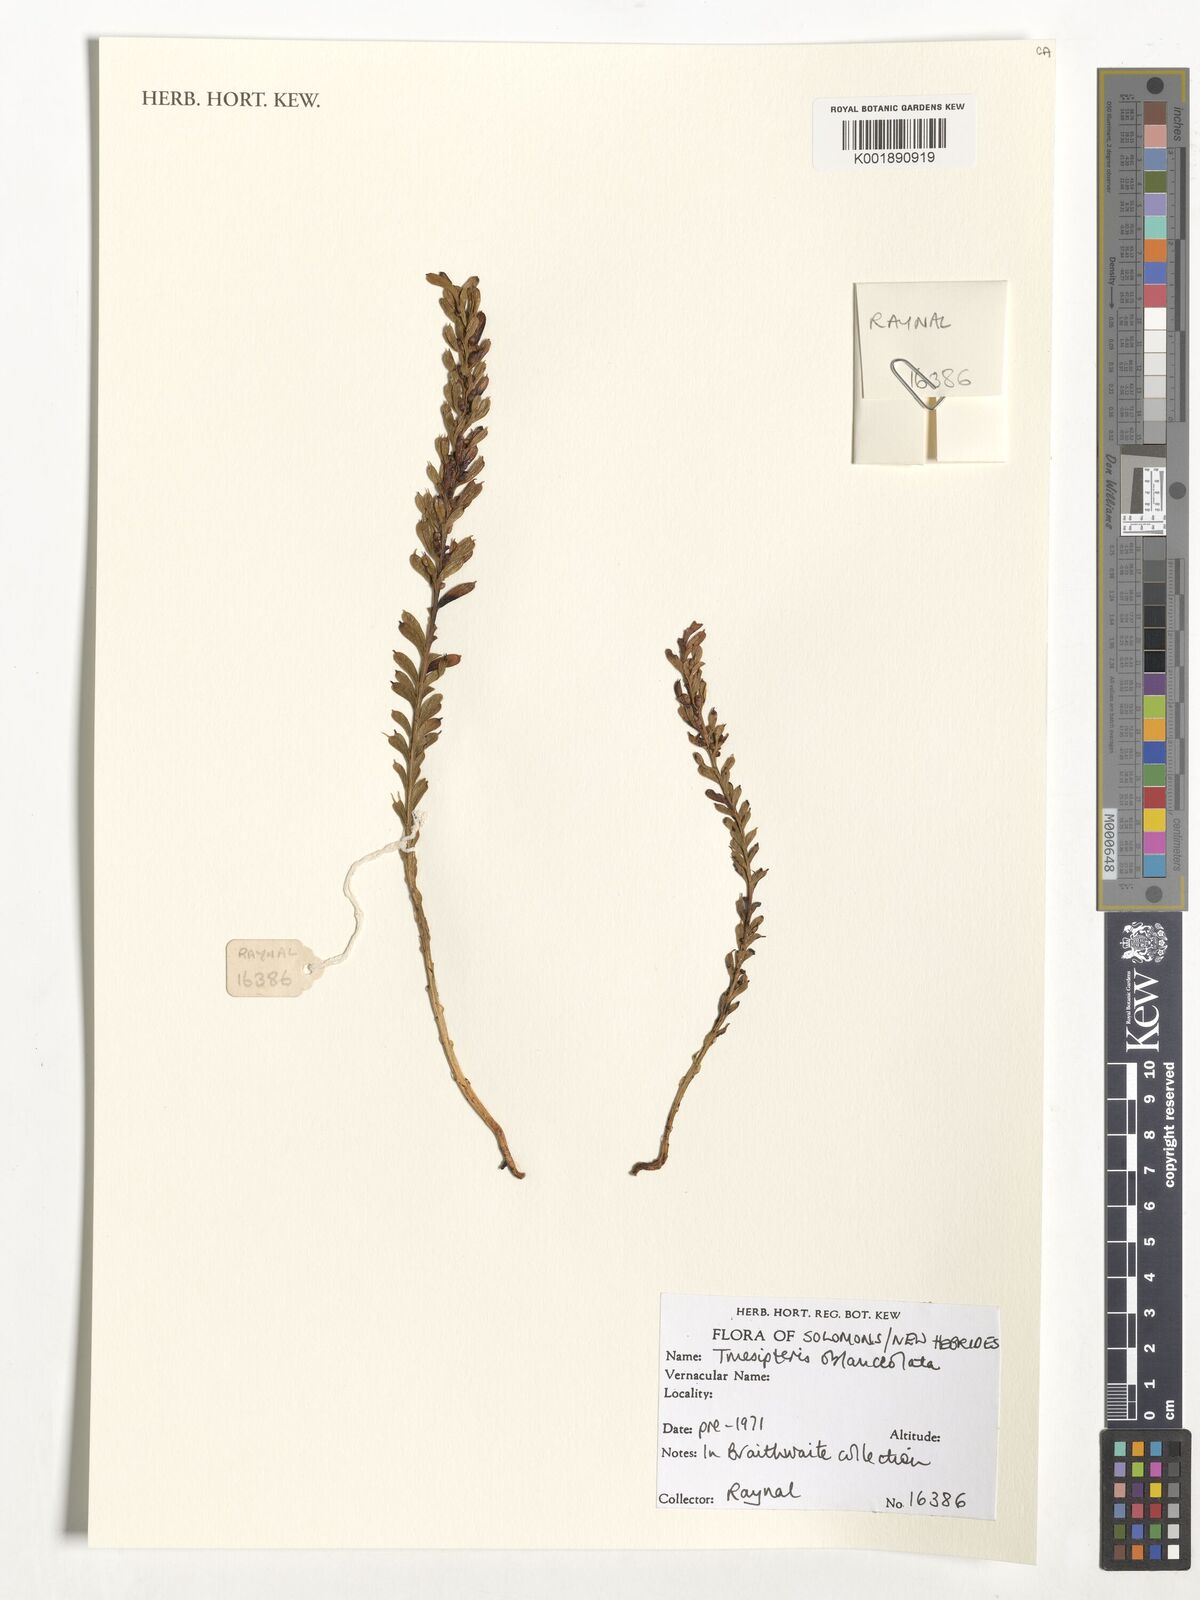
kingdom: Plantae
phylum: Tracheophyta
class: Polypodiopsida
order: Psilotales
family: Psilotaceae
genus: Tmesipteris
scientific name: Tmesipteris truncata
